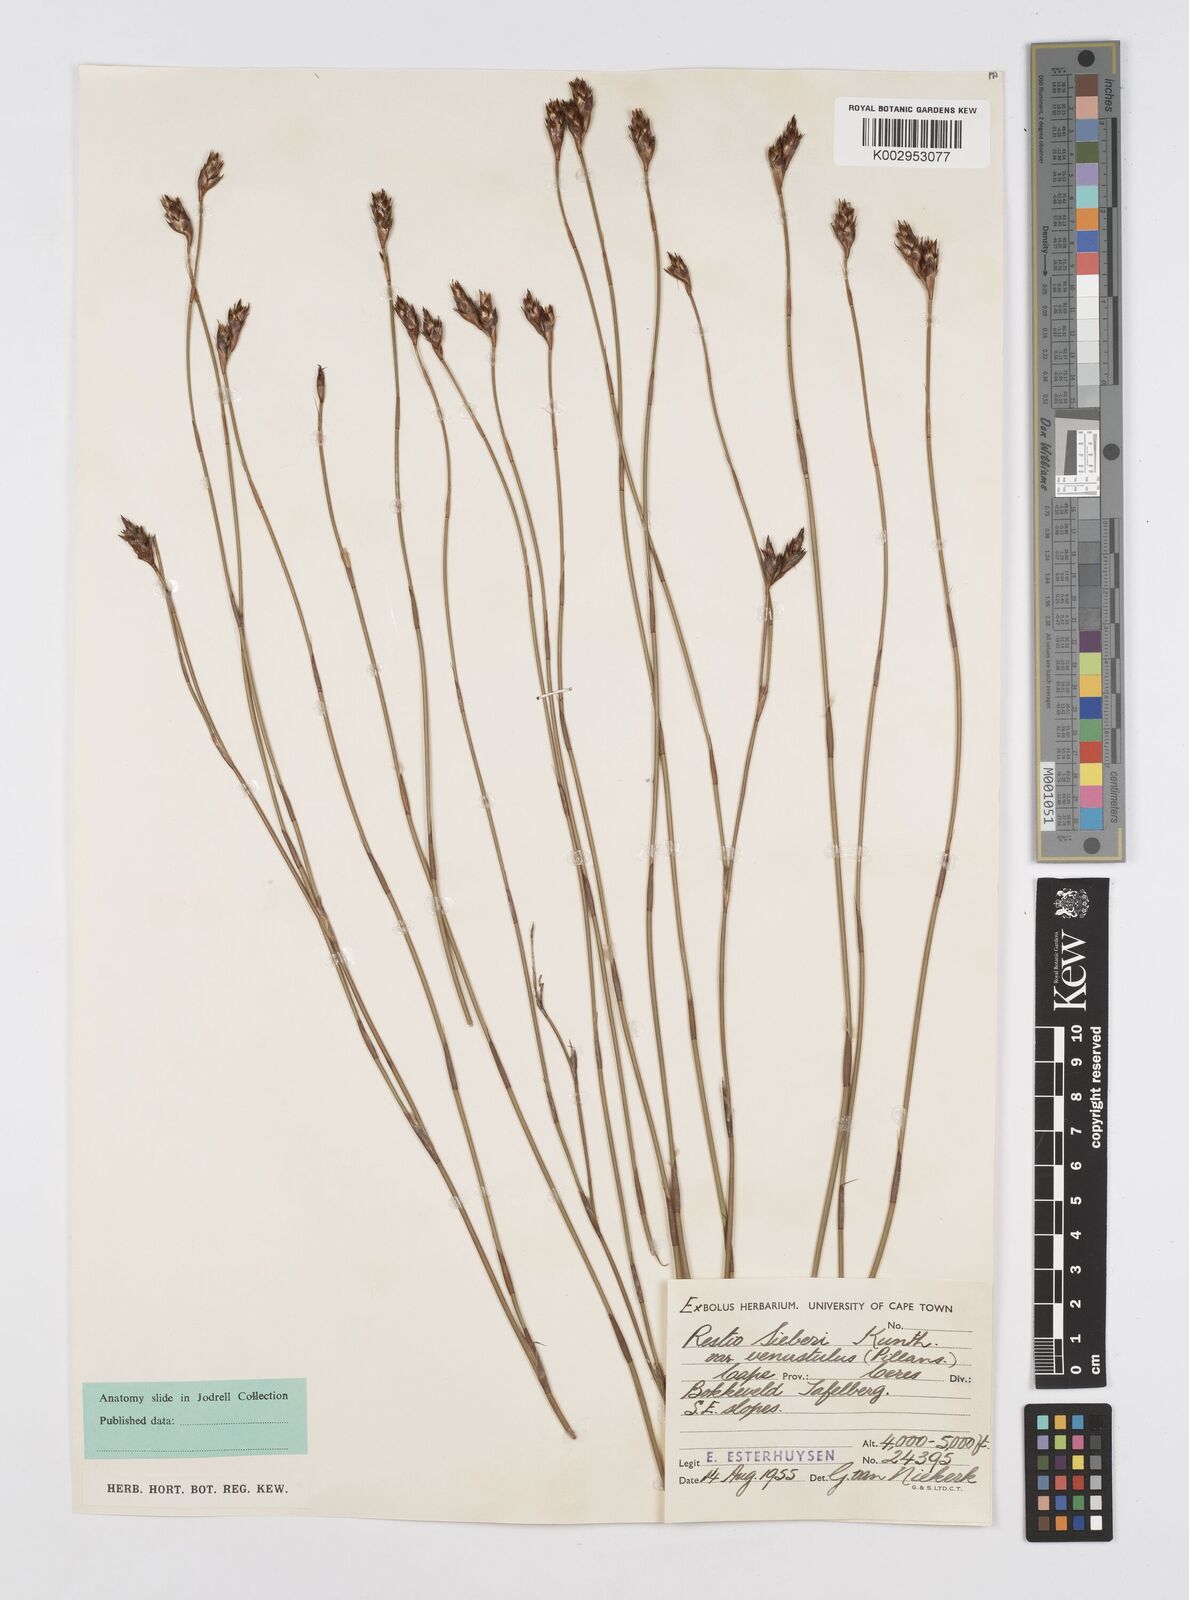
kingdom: Plantae
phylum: Tracheophyta
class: Liliopsida
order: Poales
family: Restionaceae
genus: Restio
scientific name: Restio sieberi
